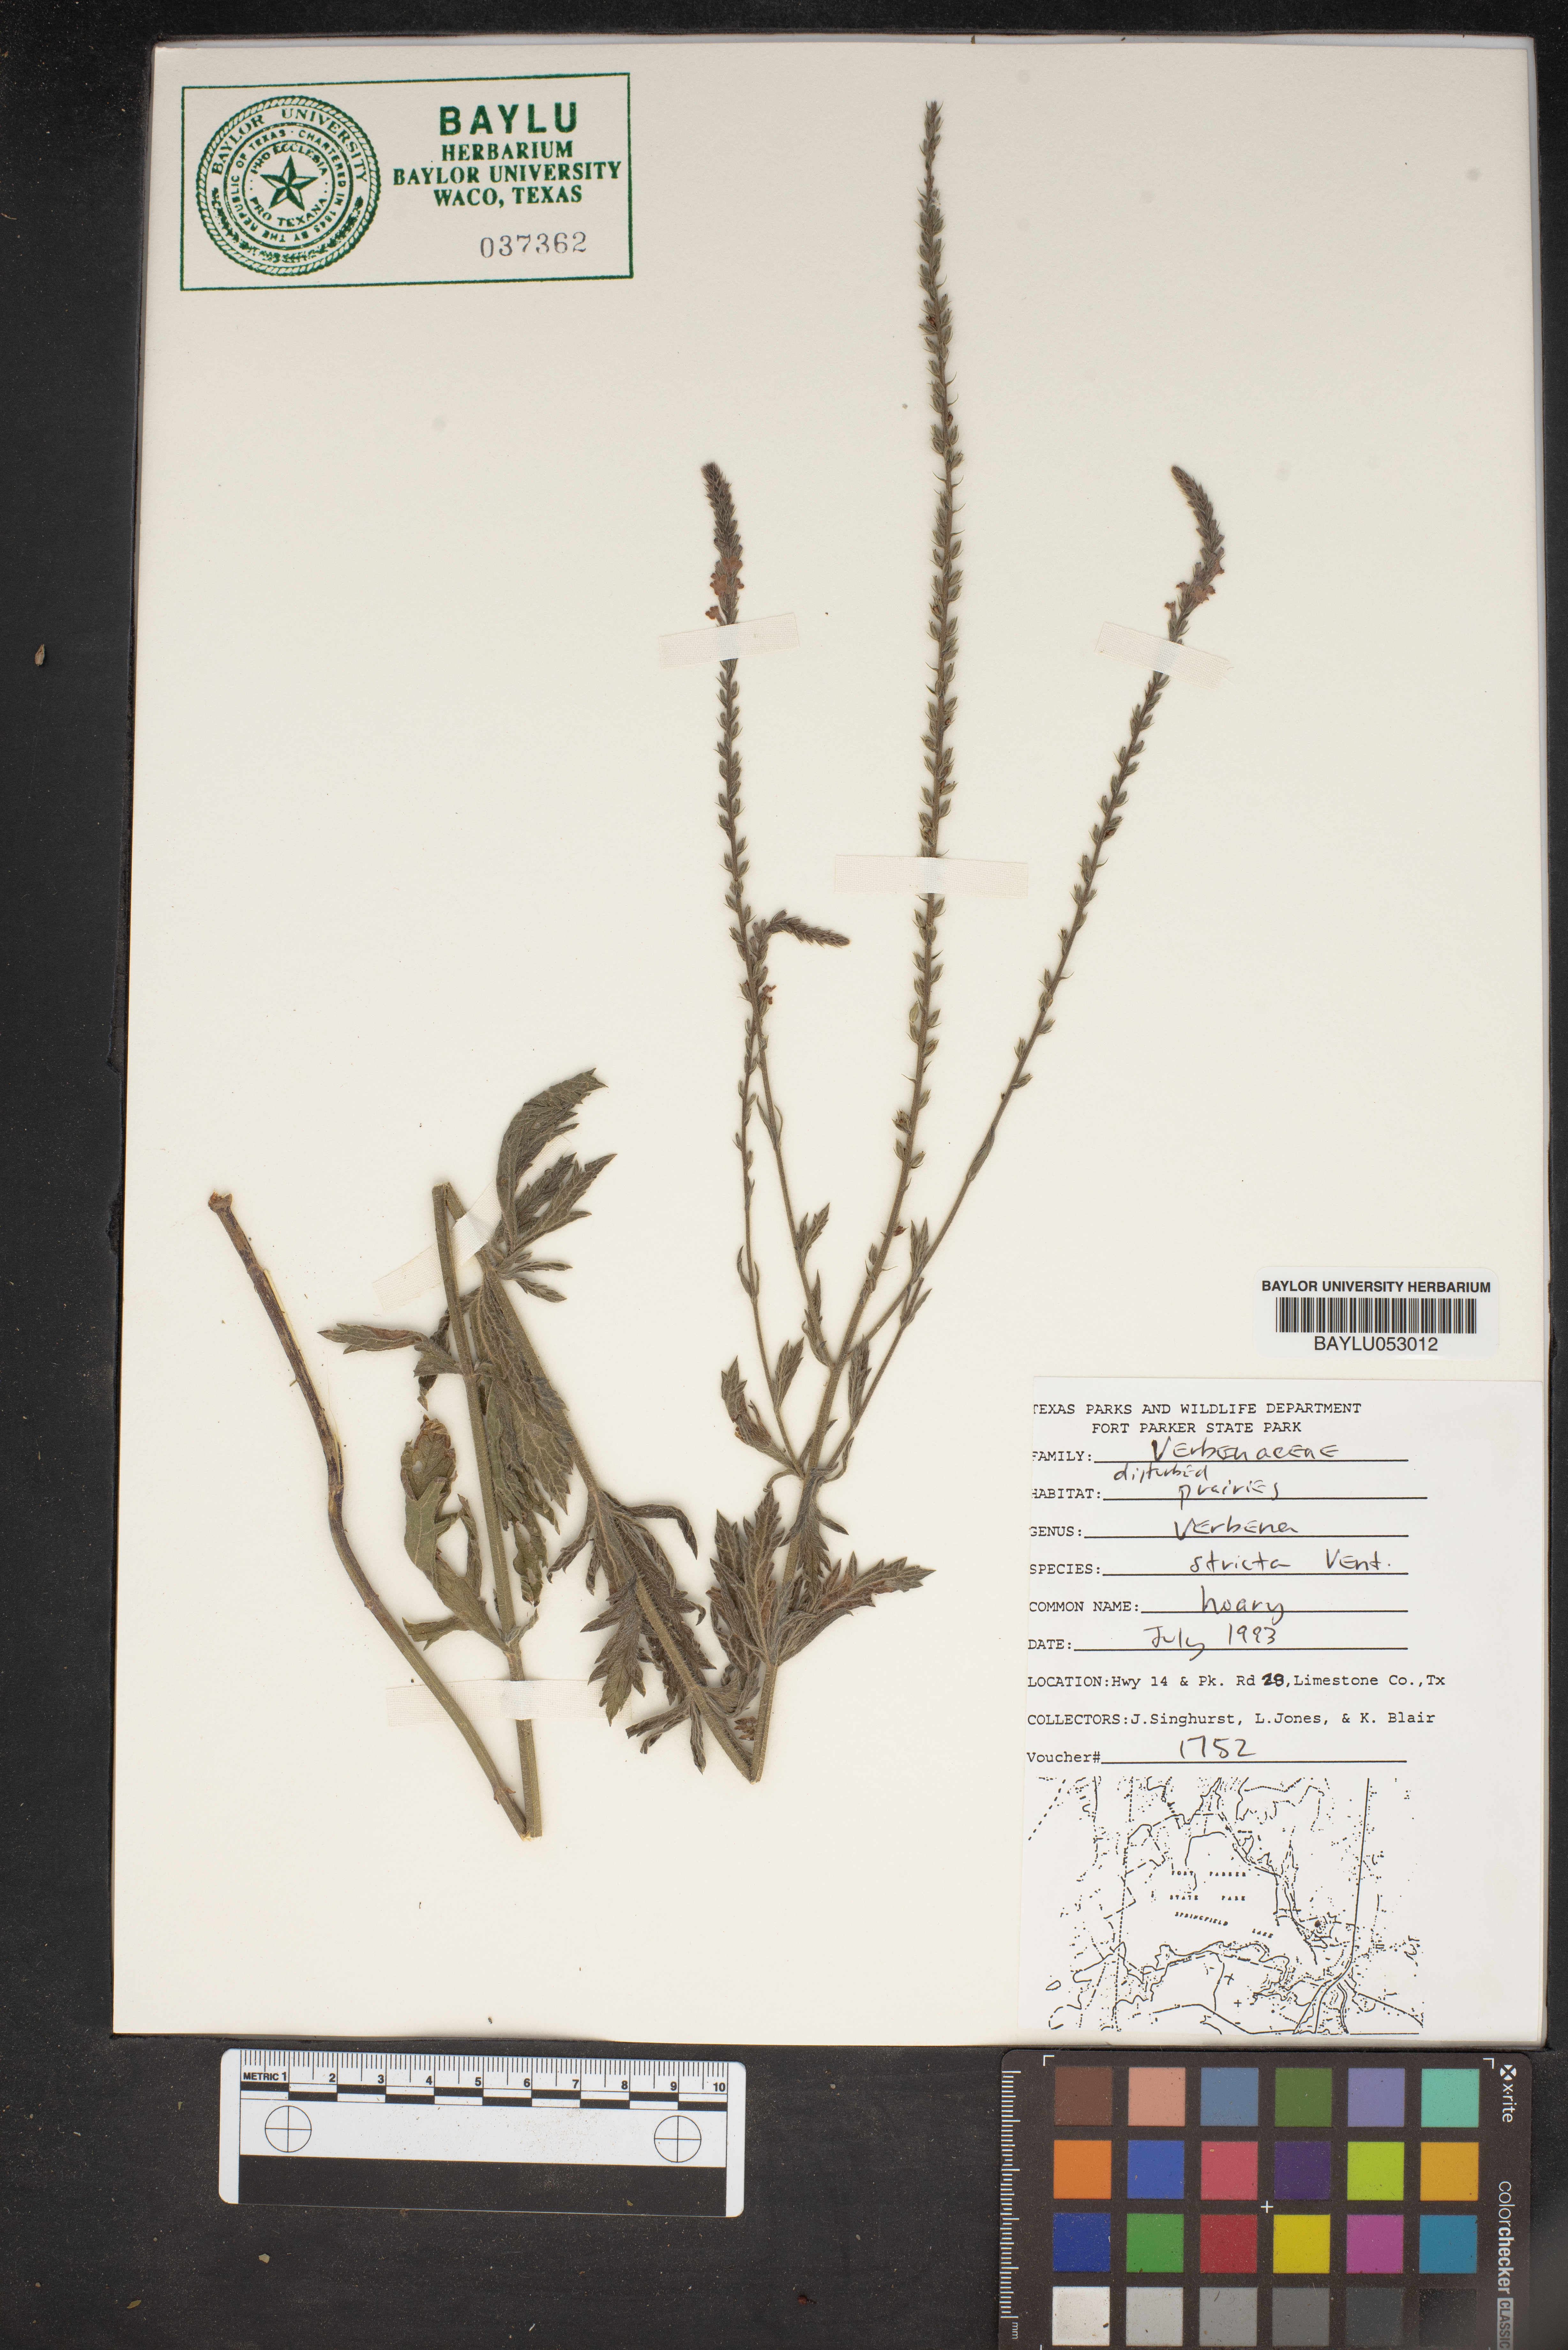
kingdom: Plantae
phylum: Tracheophyta
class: Magnoliopsida
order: Lamiales
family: Verbenaceae
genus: Verbena
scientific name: Verbena stricta
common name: Hoary vervain
